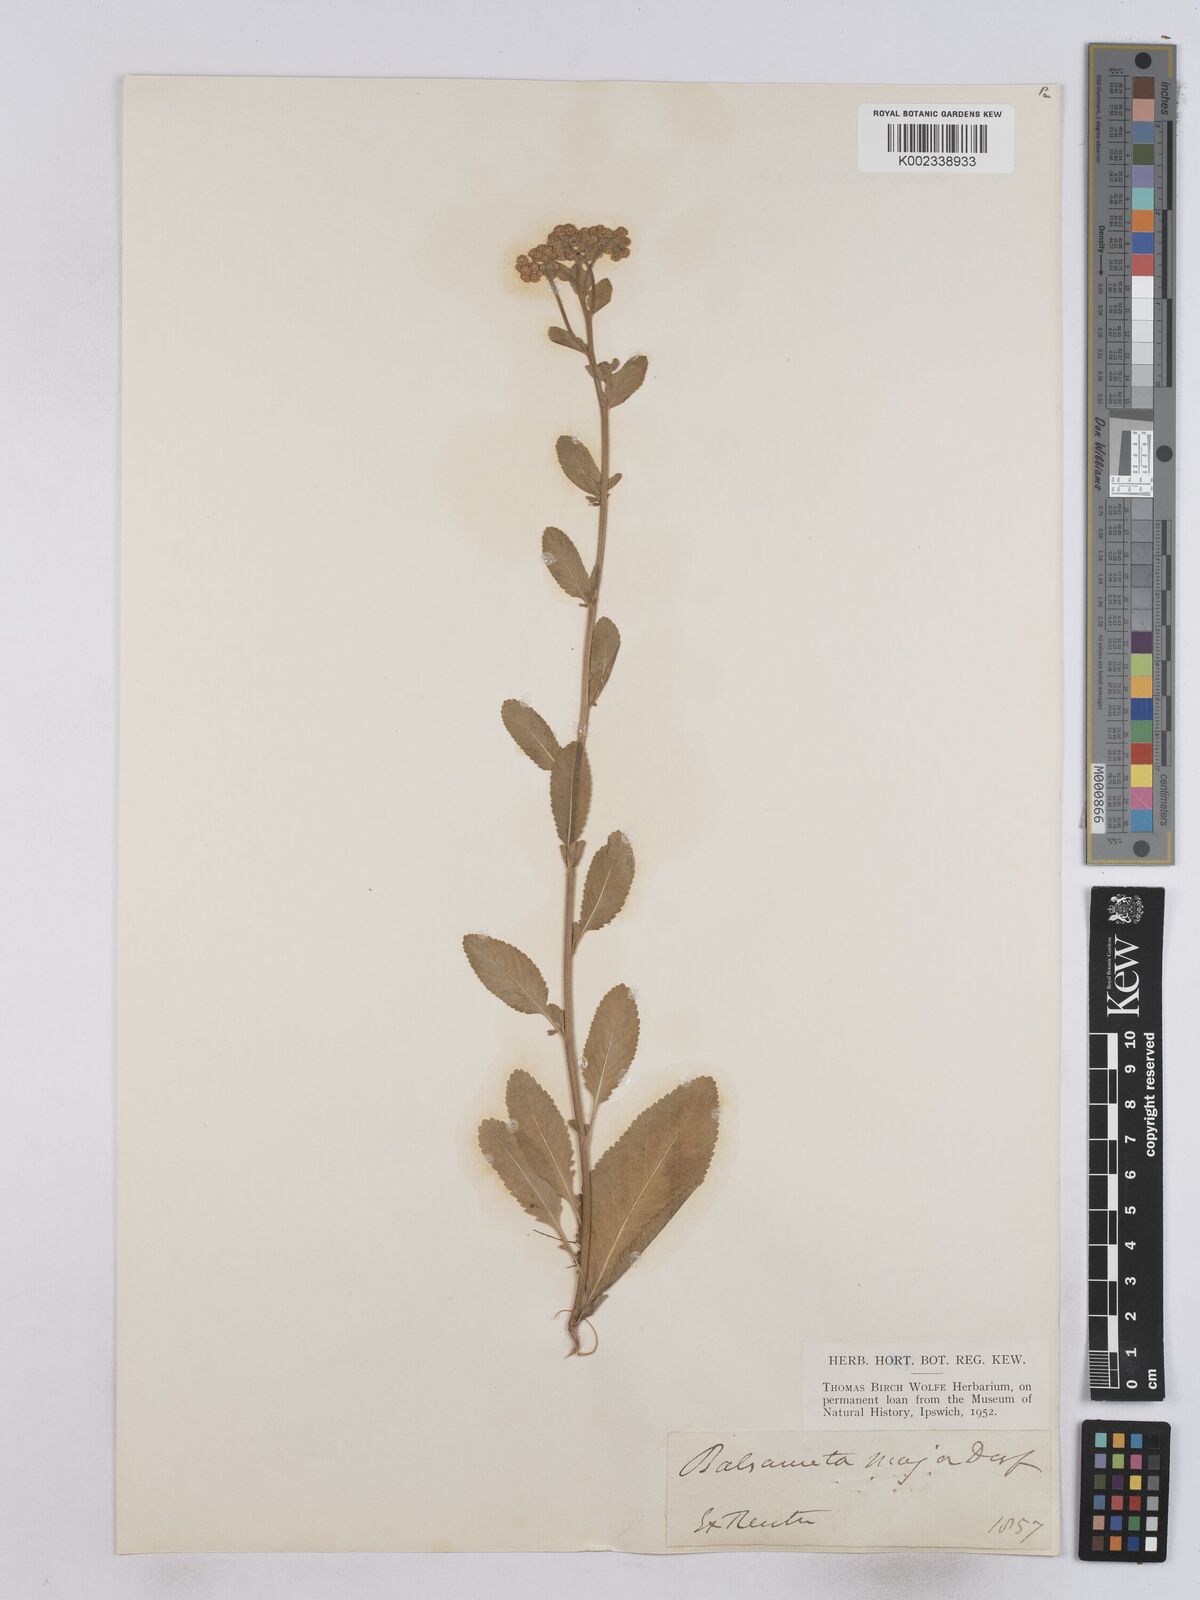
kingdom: Plantae
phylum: Tracheophyta
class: Magnoliopsida
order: Asterales
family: Asteraceae
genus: Tanacetum
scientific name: Tanacetum balsamita
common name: Costmary
